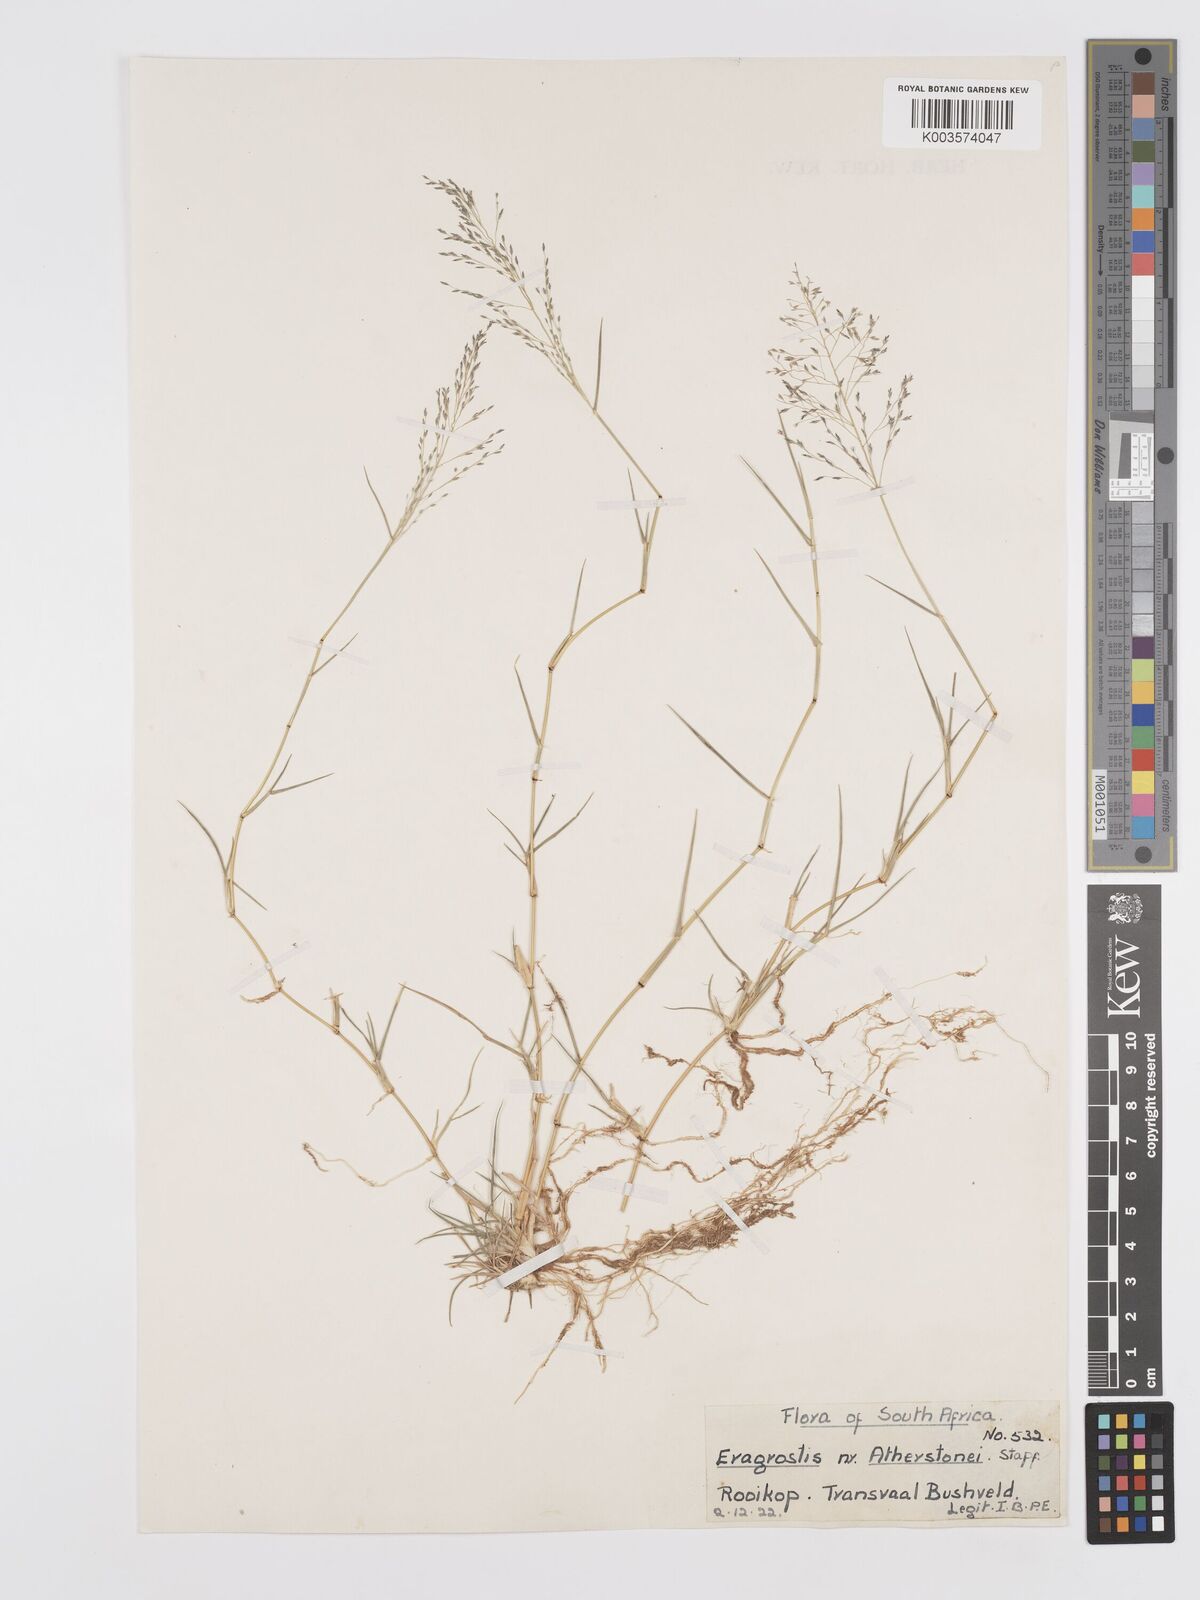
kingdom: Plantae
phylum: Tracheophyta
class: Liliopsida
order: Poales
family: Poaceae
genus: Eragrostis
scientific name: Eragrostis cylindriflora
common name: Cylinderflower lovegrass
